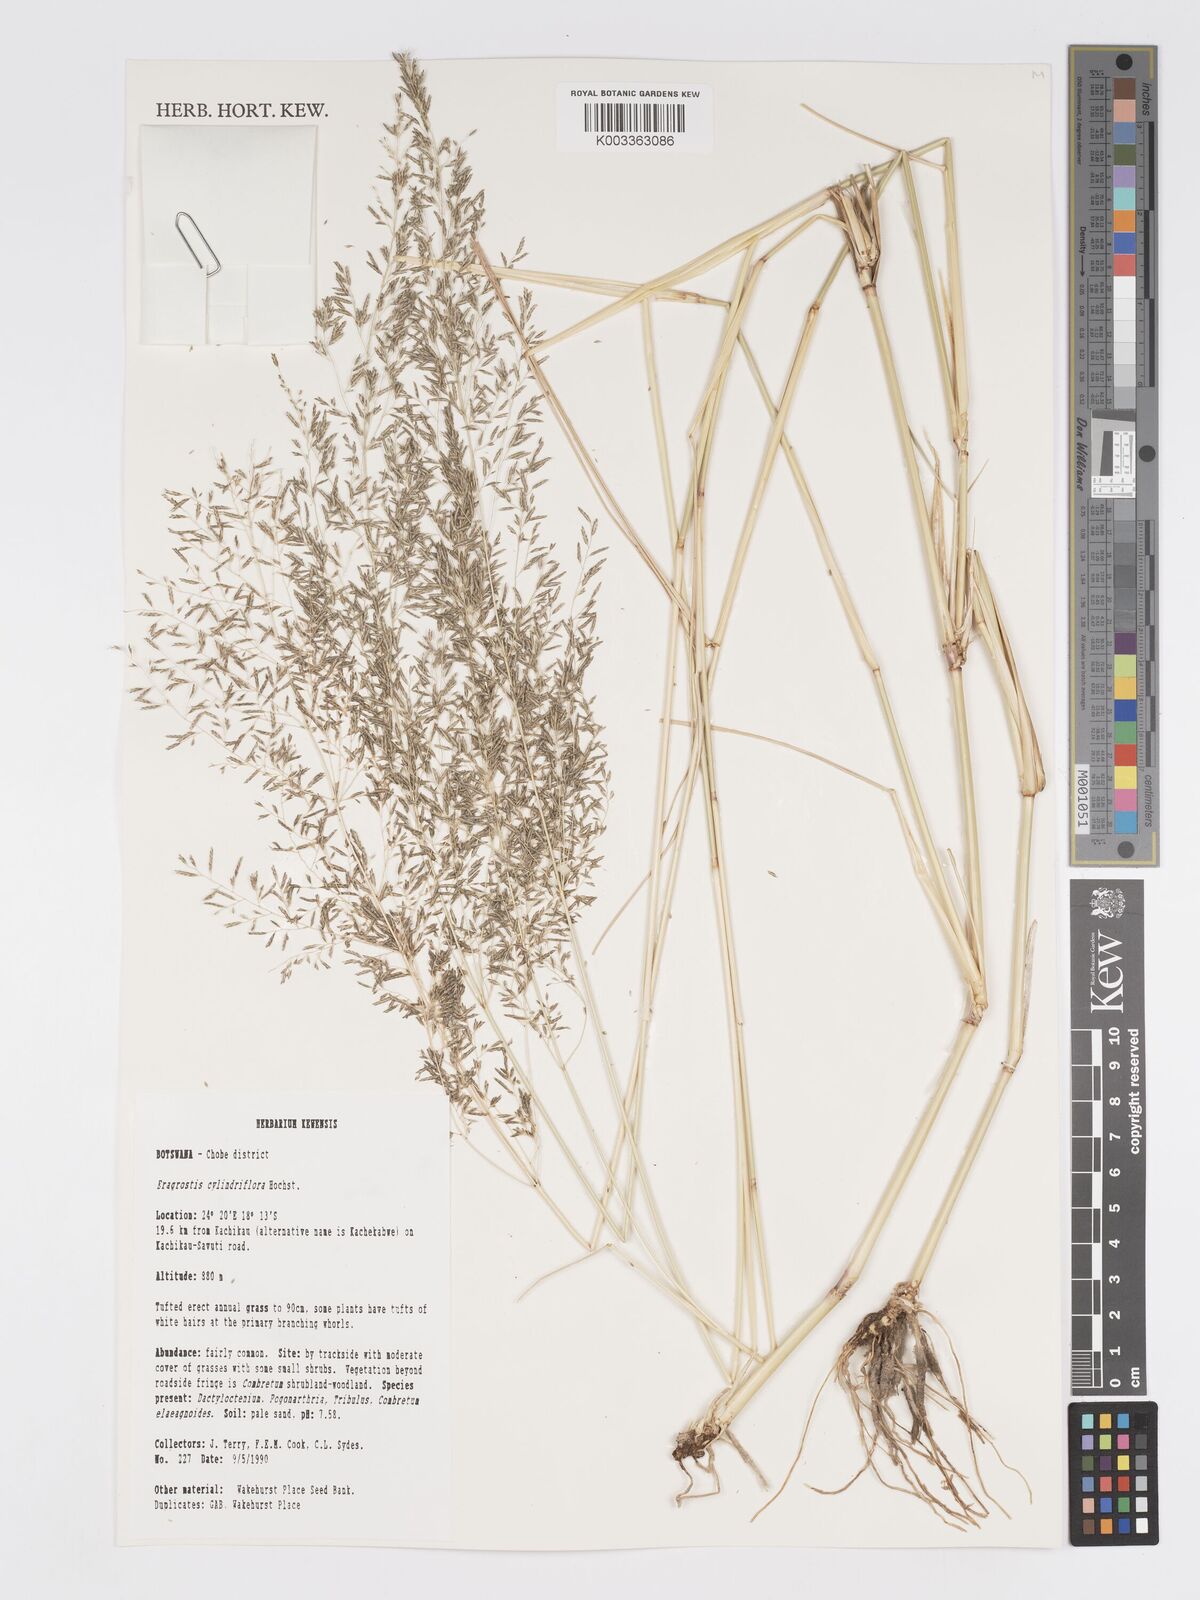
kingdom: Plantae
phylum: Tracheophyta
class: Liliopsida
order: Poales
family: Poaceae
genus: Eragrostis
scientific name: Eragrostis cylindriflora
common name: Cylinderflower lovegrass
